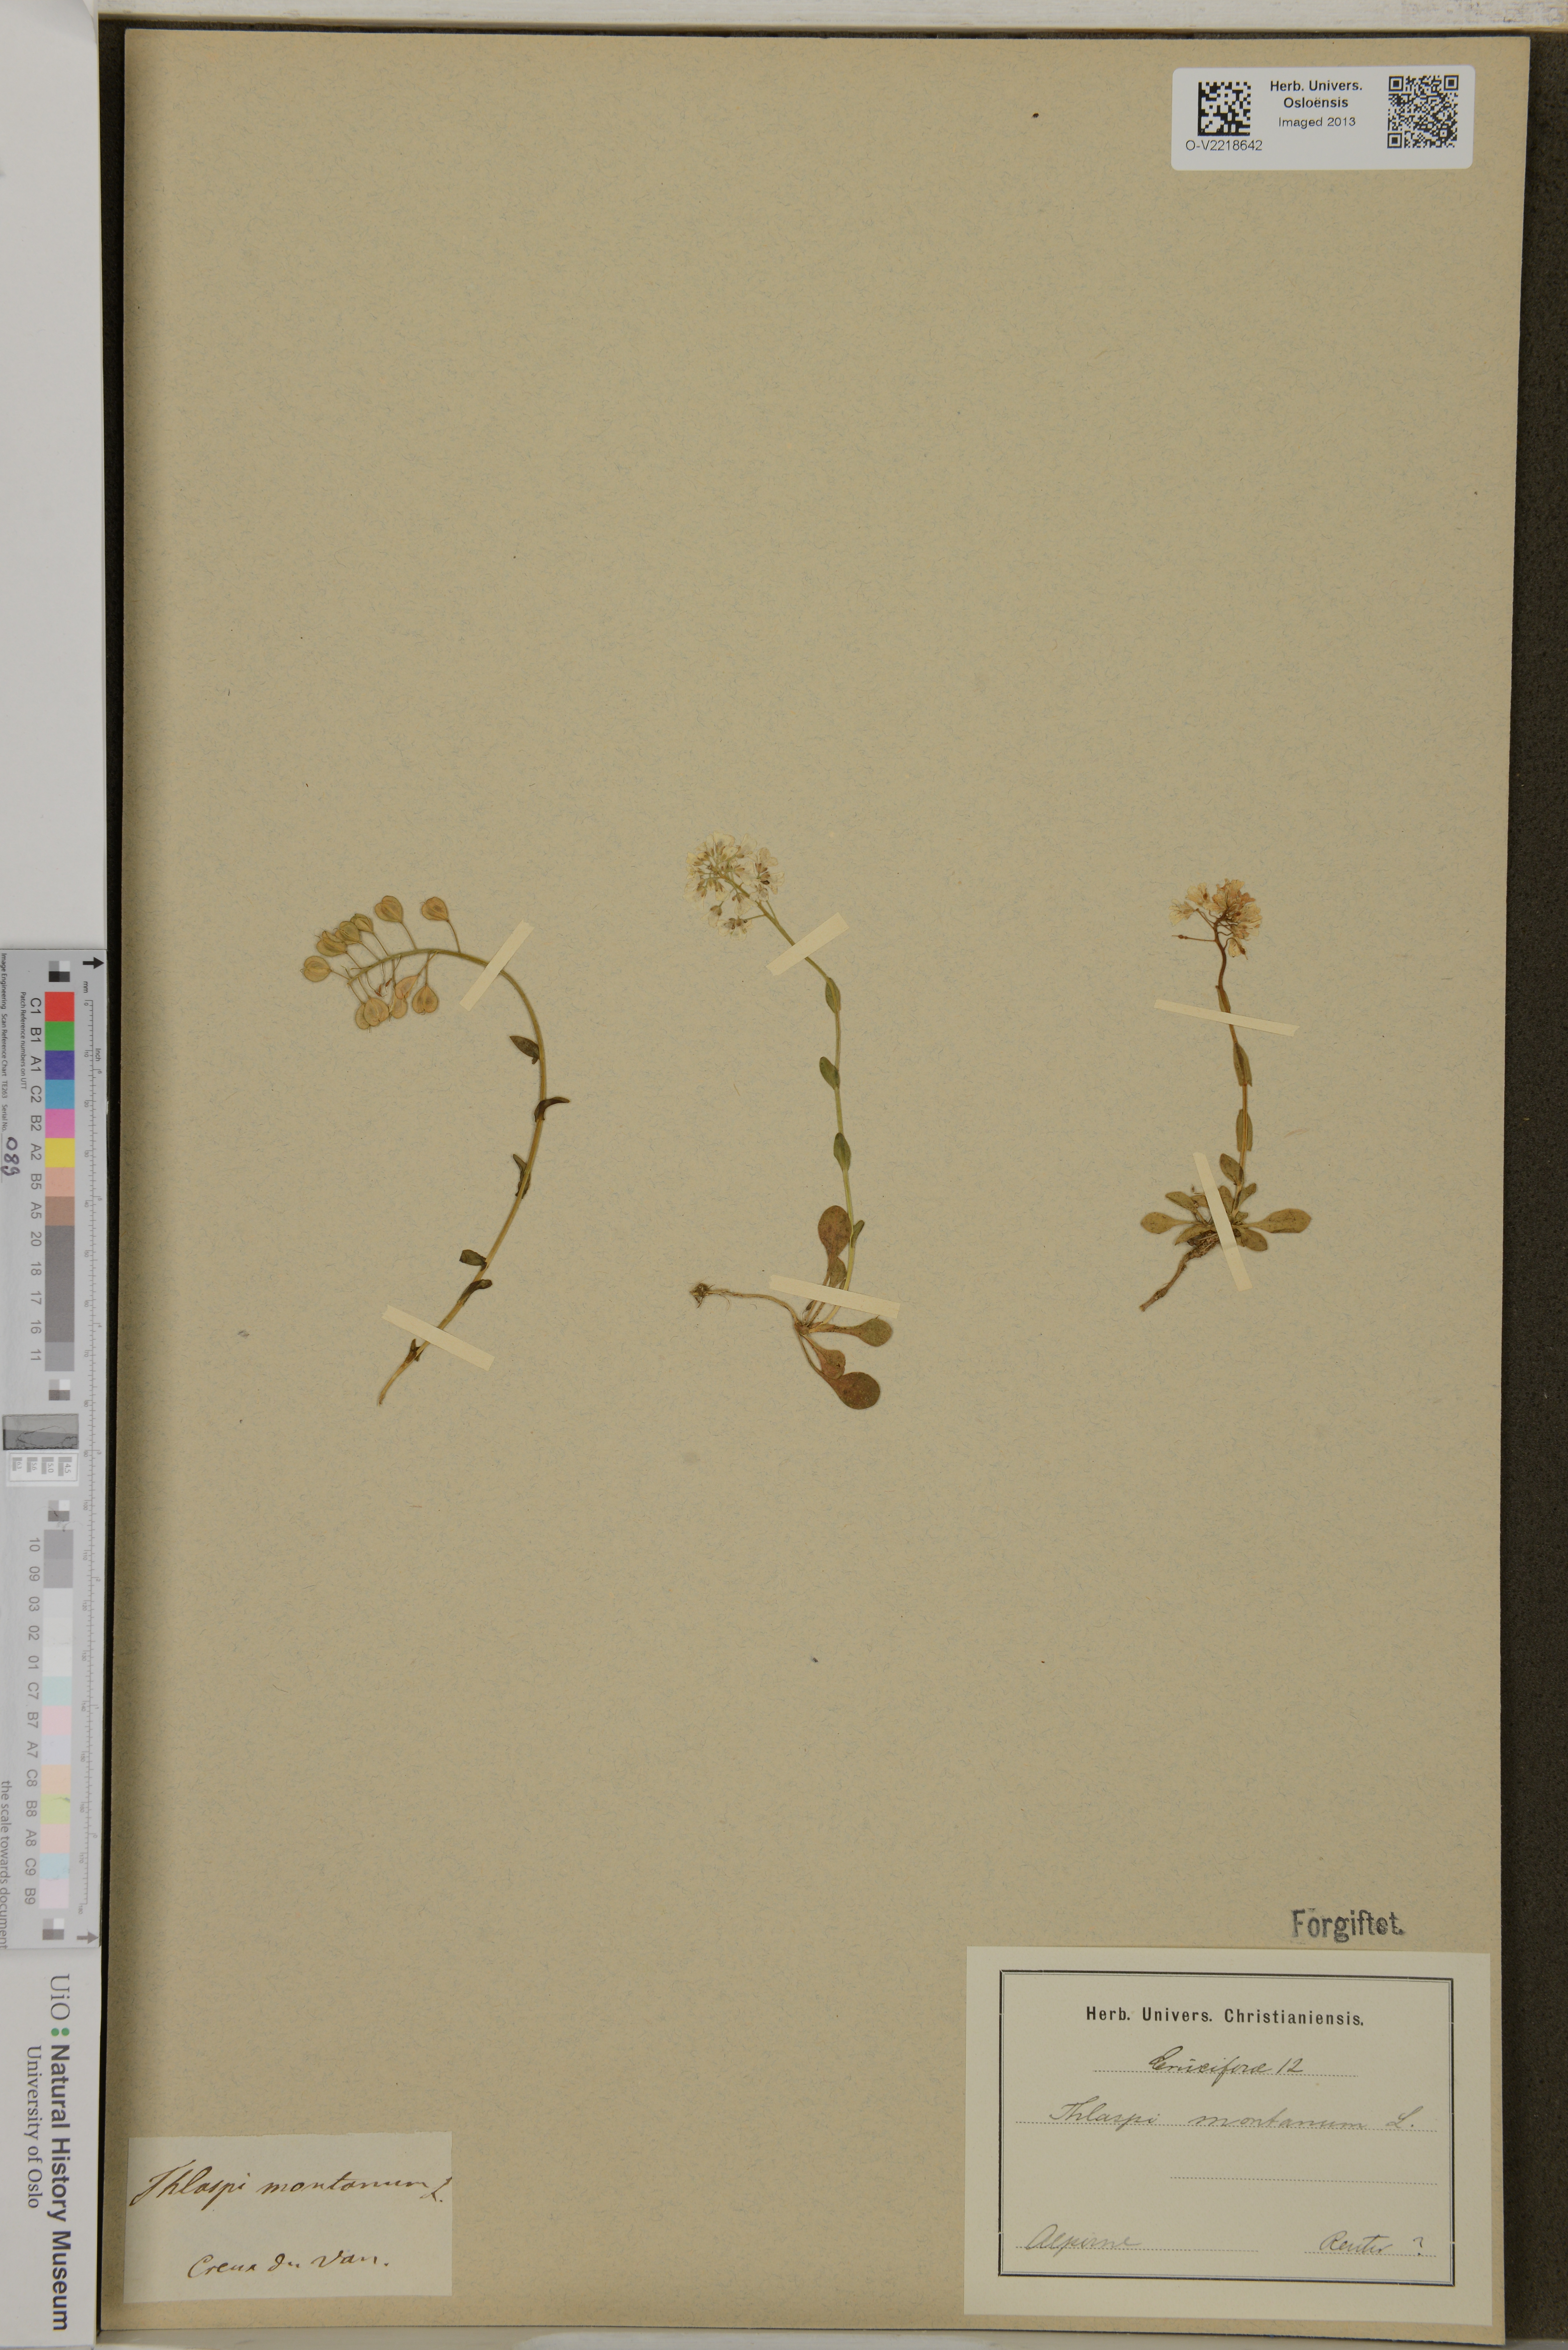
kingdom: Plantae
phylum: Tracheophyta
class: Magnoliopsida
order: Brassicales
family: Brassicaceae
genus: Noccaea
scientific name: Noccaea montana
